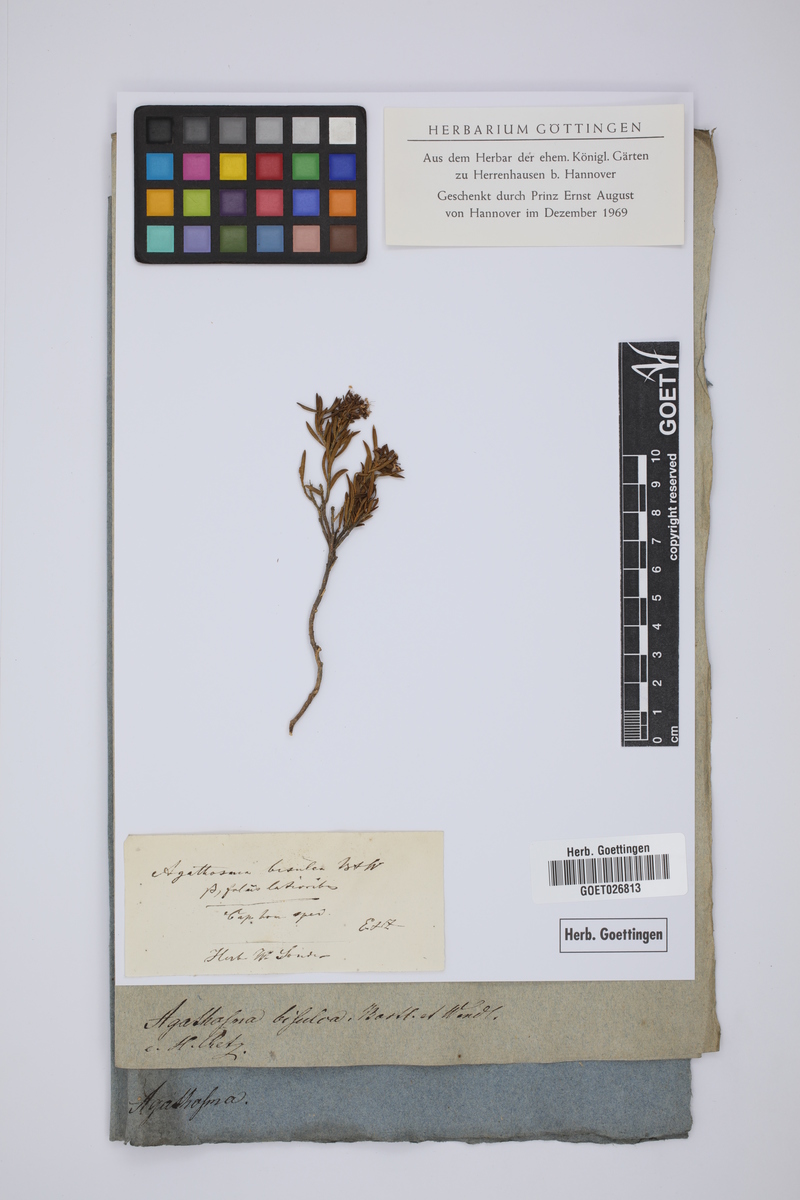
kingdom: Plantae
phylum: Tracheophyta
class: Magnoliopsida
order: Sapindales
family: Rutaceae
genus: Agathosma
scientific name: Agathosma bisulca
